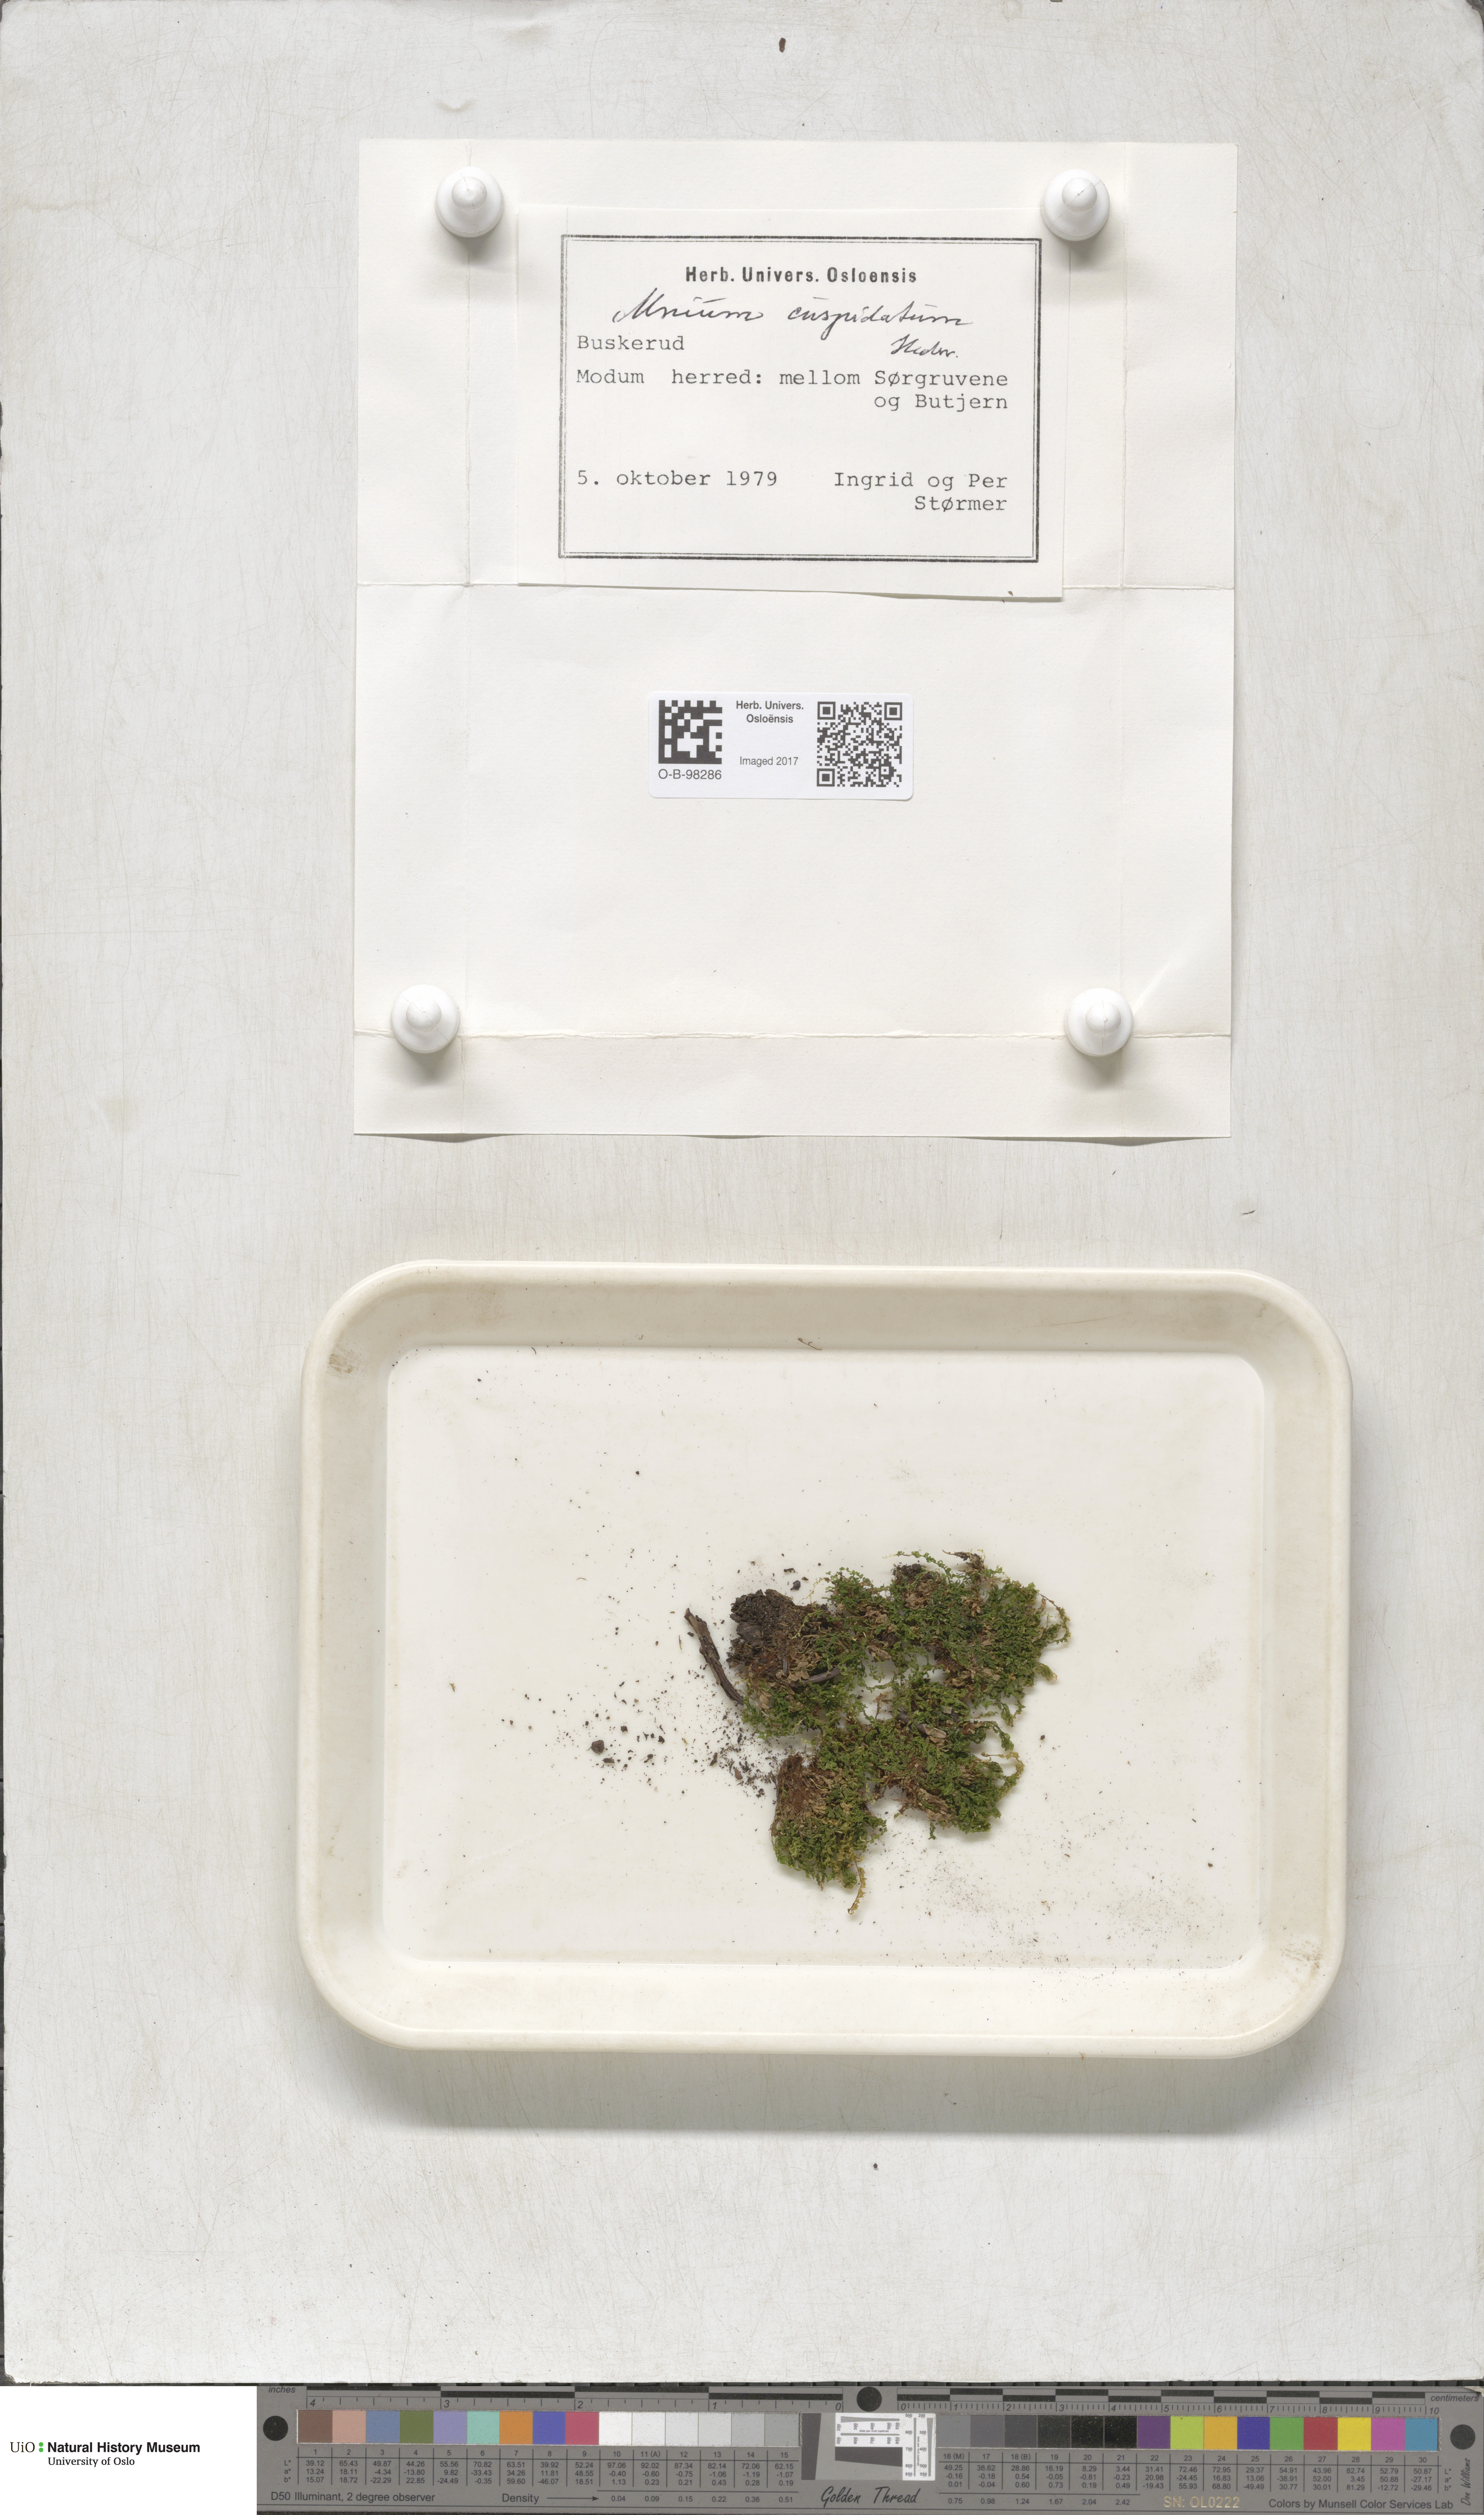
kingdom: Plantae
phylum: Bryophyta
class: Bryopsida
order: Bryales
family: Mniaceae
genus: Plagiomnium
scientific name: Plagiomnium cuspidatum
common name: Woodsy leafy moss
